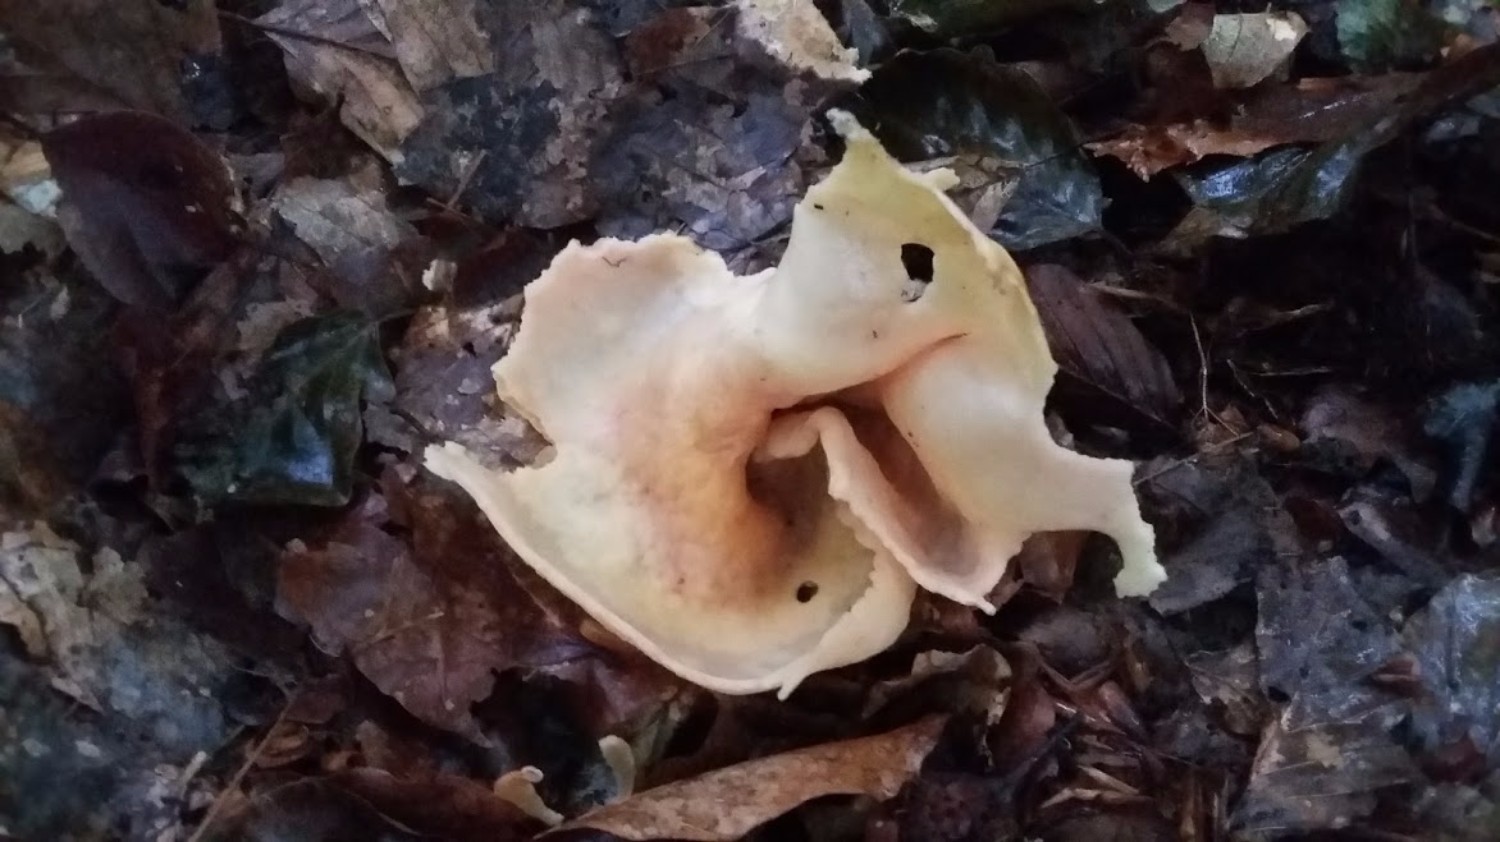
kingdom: Fungi
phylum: Ascomycota
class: Pezizomycetes
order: Pezizales
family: Otideaceae
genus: Otidea
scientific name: Otidea onotica
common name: æsel-ørebæger
